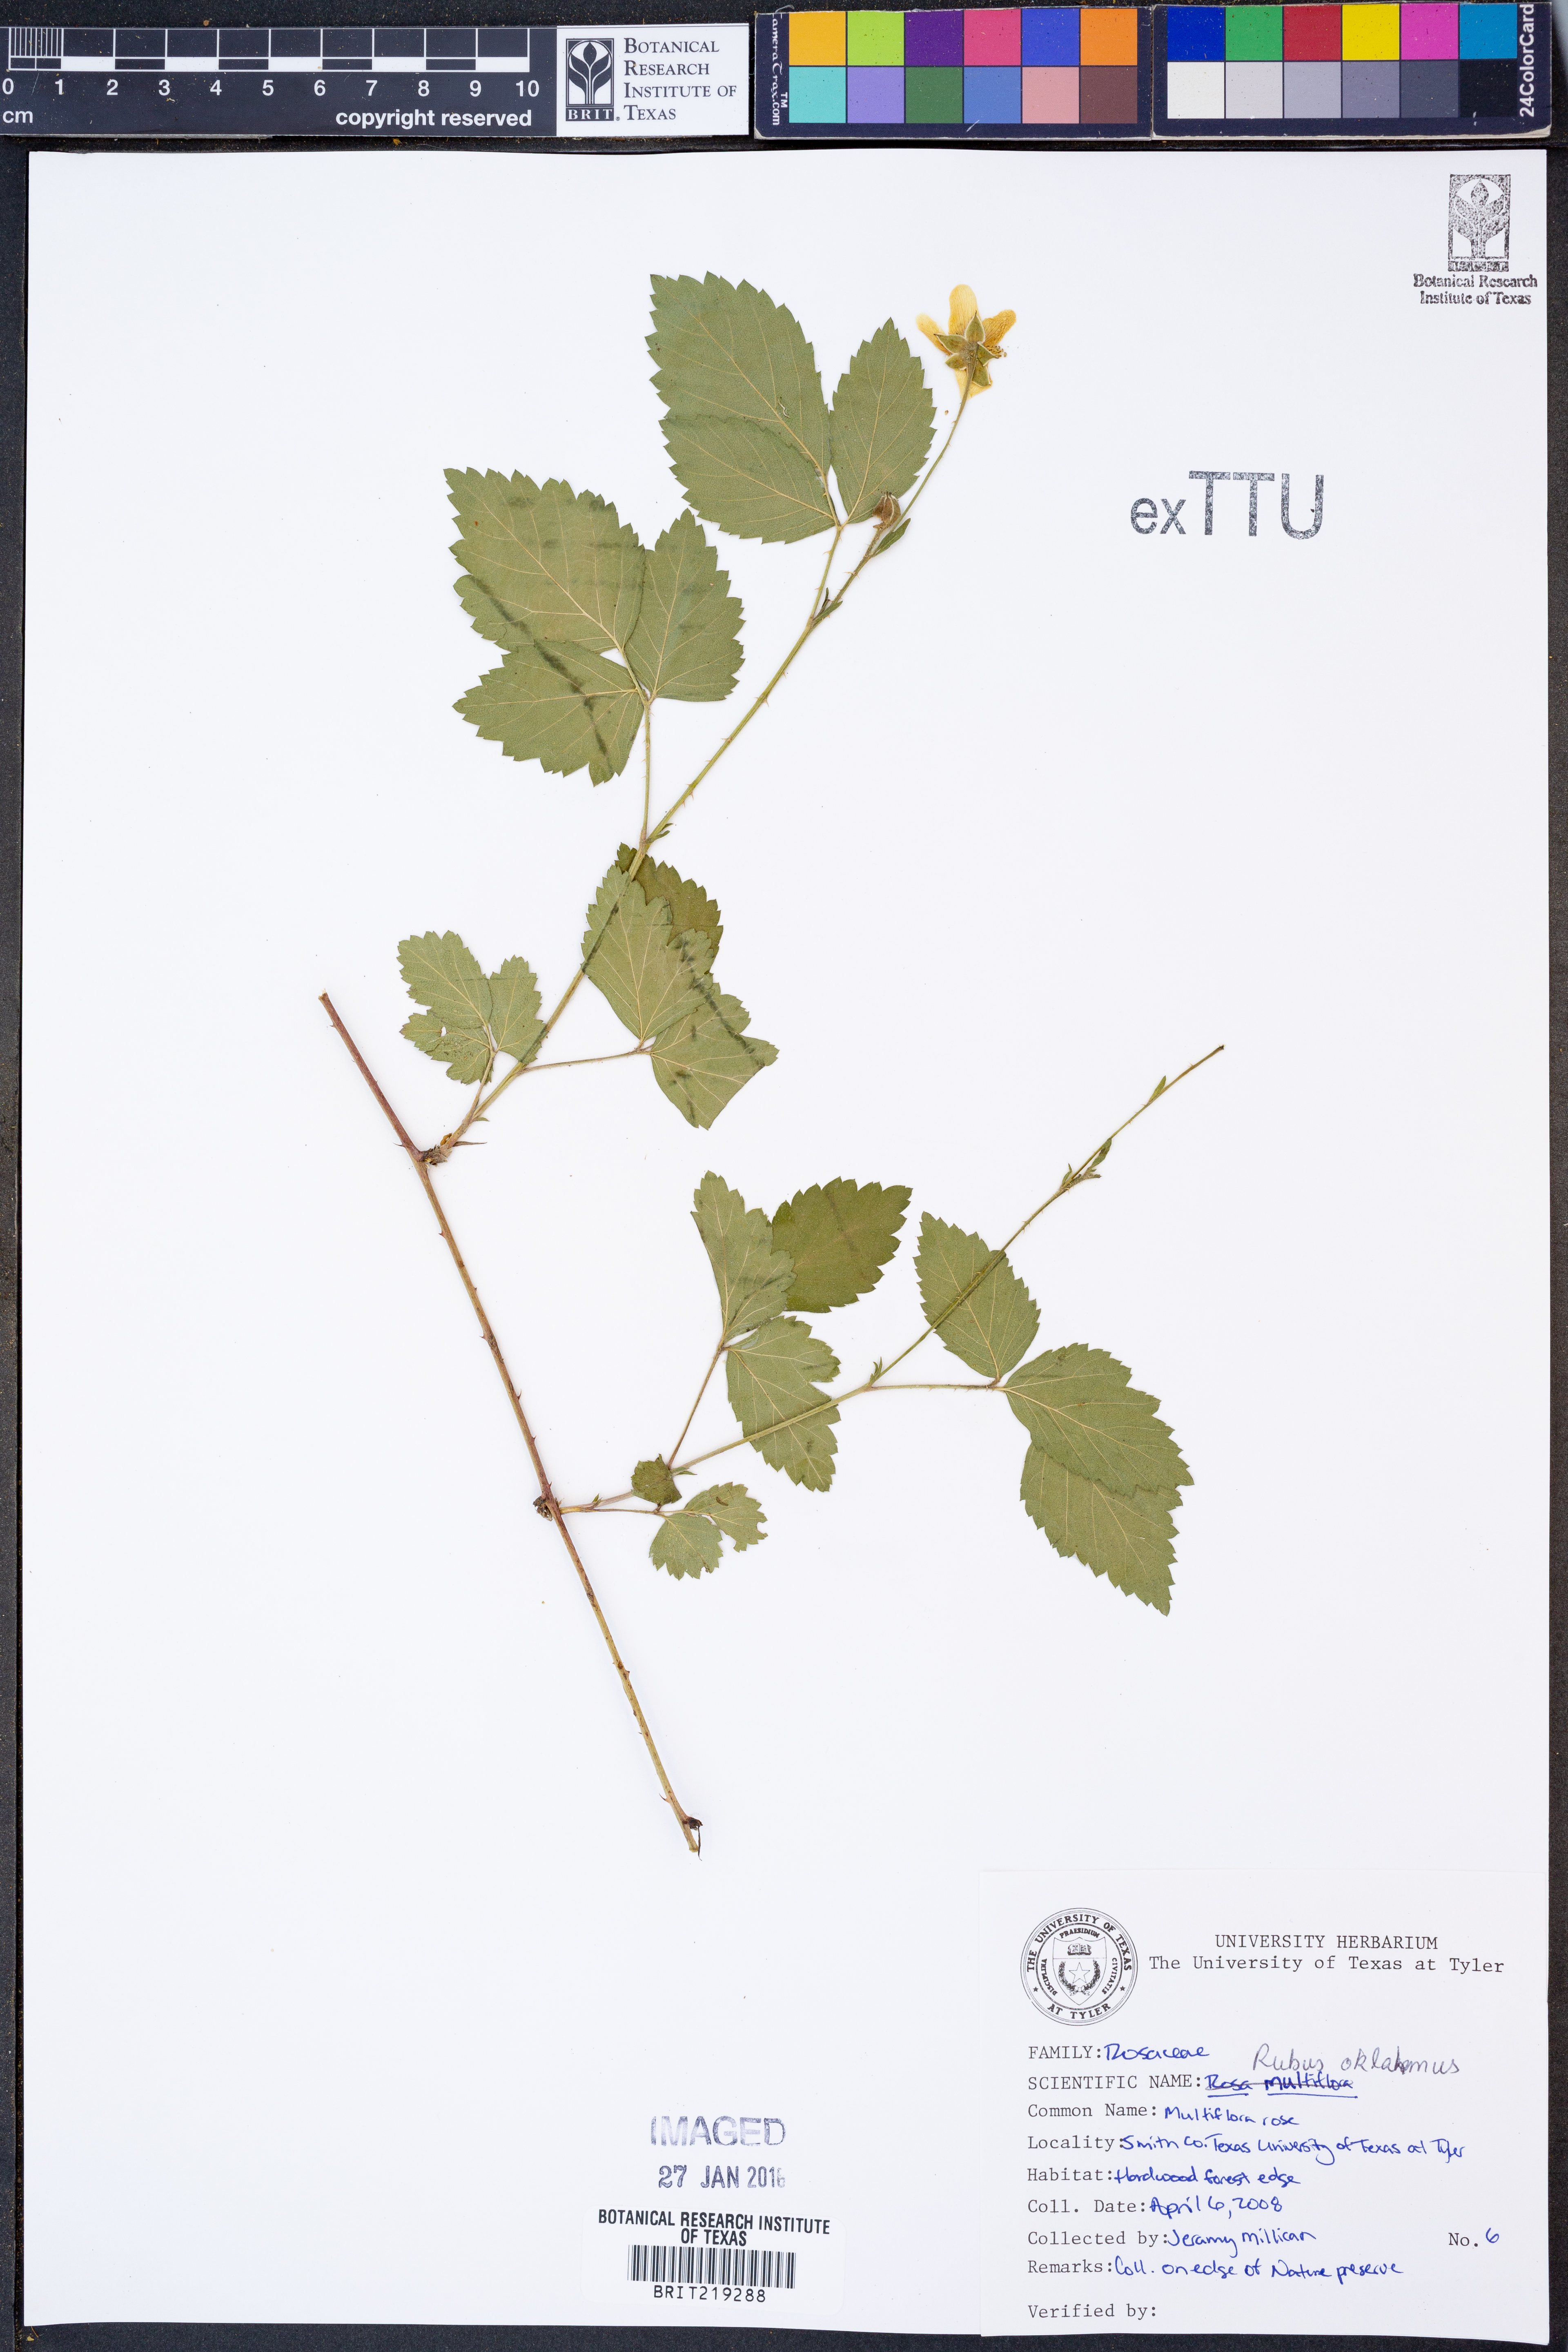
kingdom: Plantae
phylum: Tracheophyta
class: Magnoliopsida
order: Rosales
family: Rosaceae
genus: Rubus
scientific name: Rubus oklahomus
